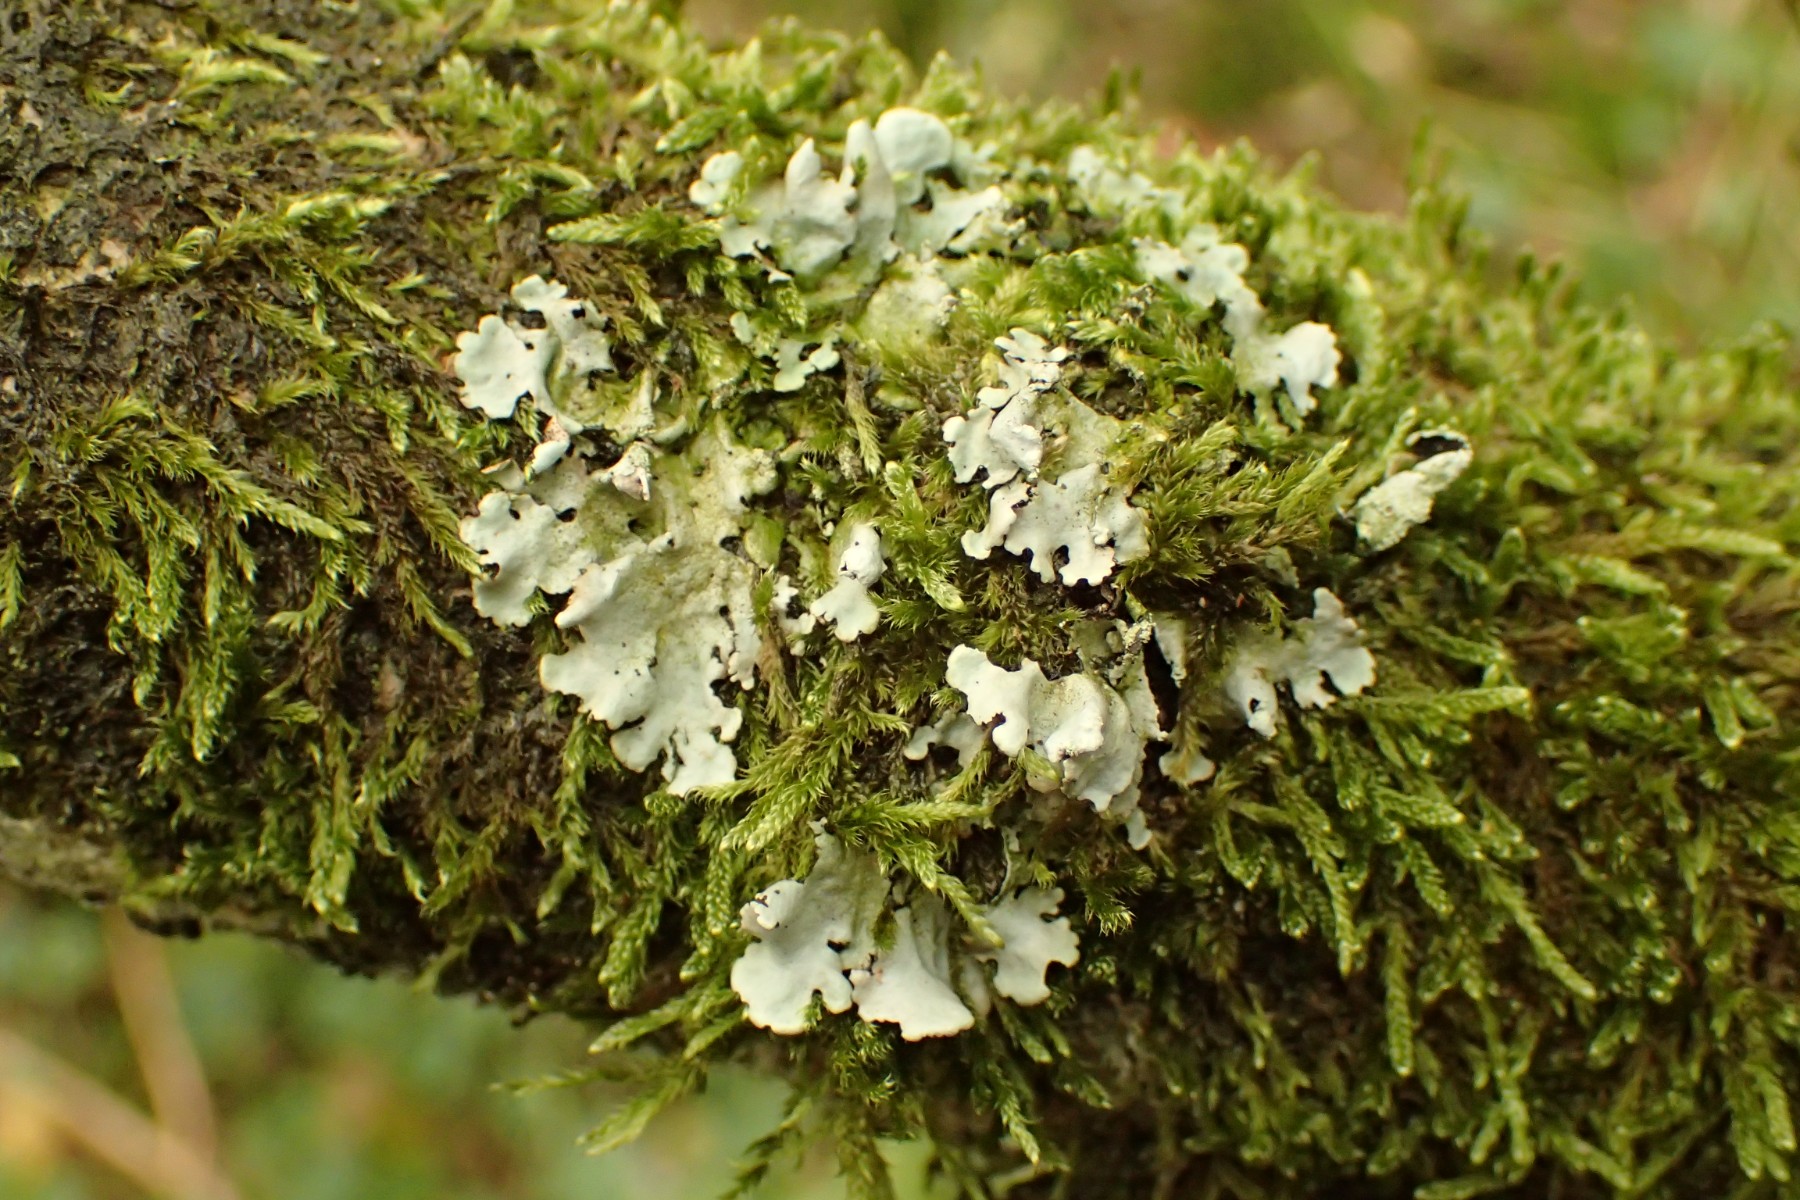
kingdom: Fungi
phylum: Ascomycota
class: Lecanoromycetes
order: Lecanorales
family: Parmeliaceae
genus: Hypotrachyna
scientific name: Hypotrachyna afrorevoluta
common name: kyst-skållav
